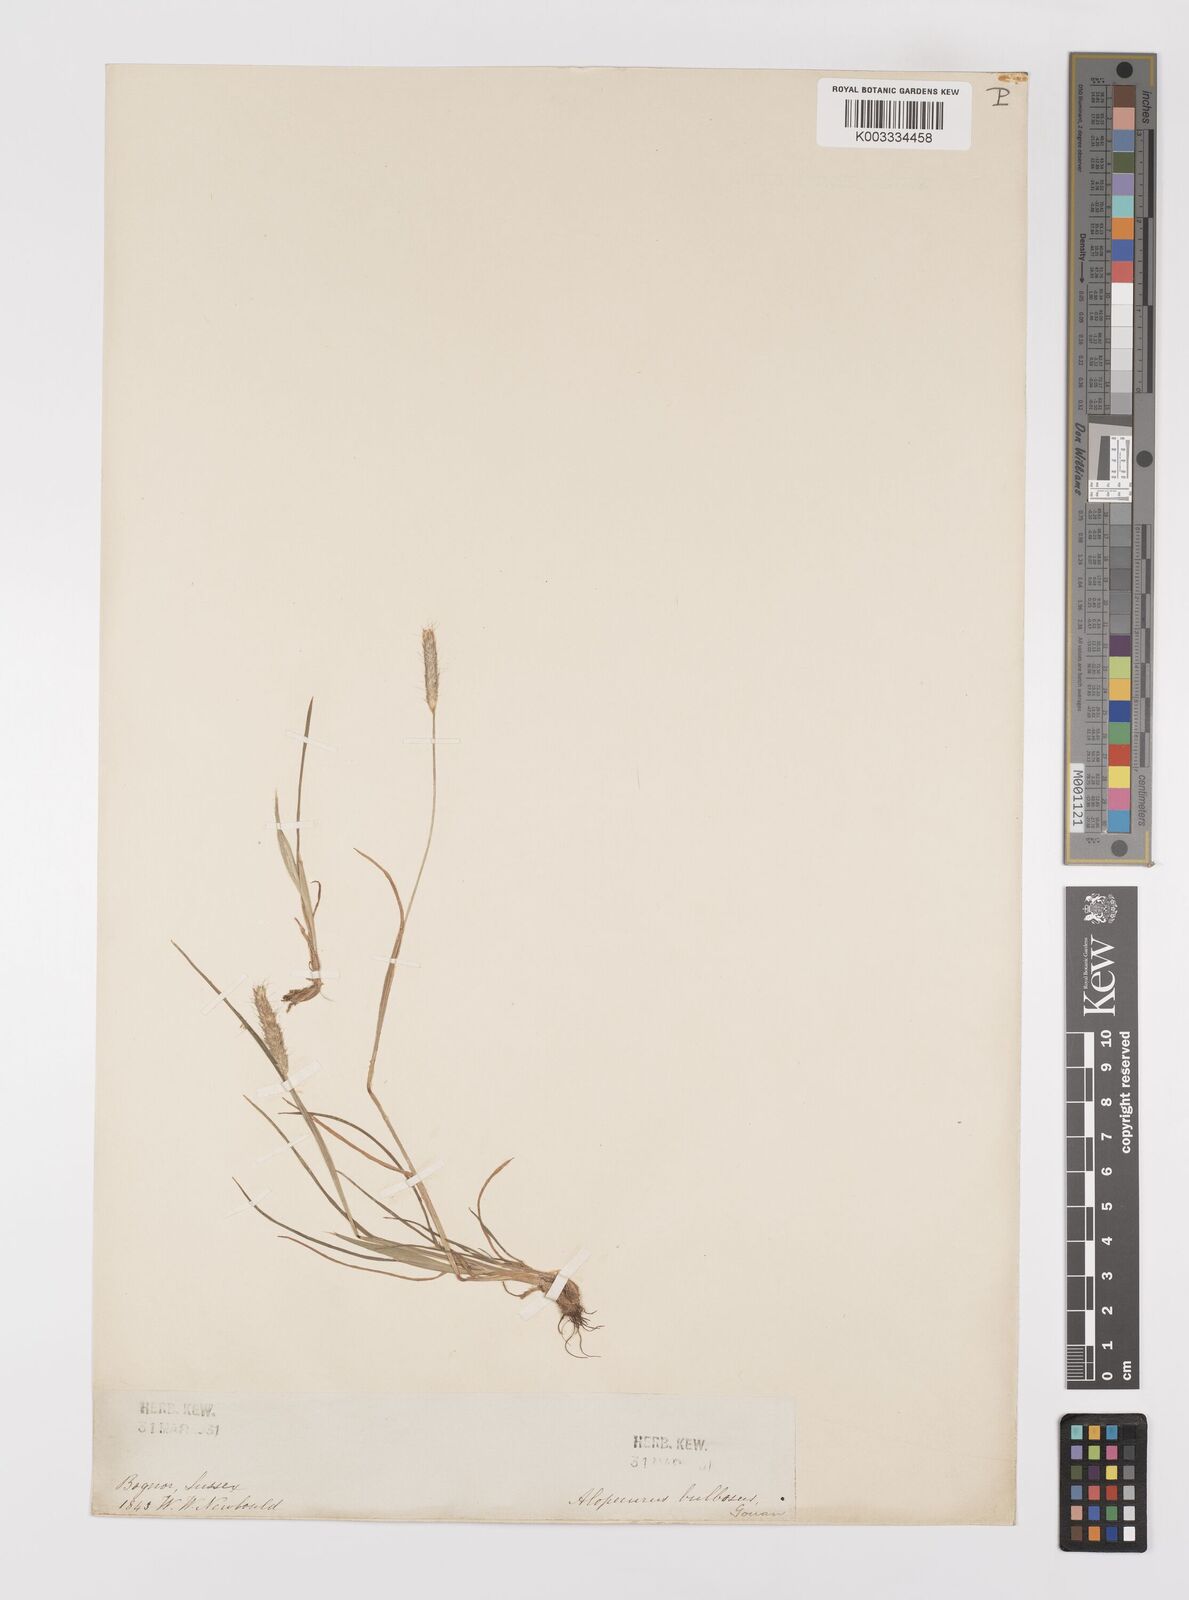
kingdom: Plantae
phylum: Tracheophyta
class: Liliopsida
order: Poales
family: Poaceae
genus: Alopecurus
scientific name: Alopecurus bulbosus
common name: Bulbous foxtail
